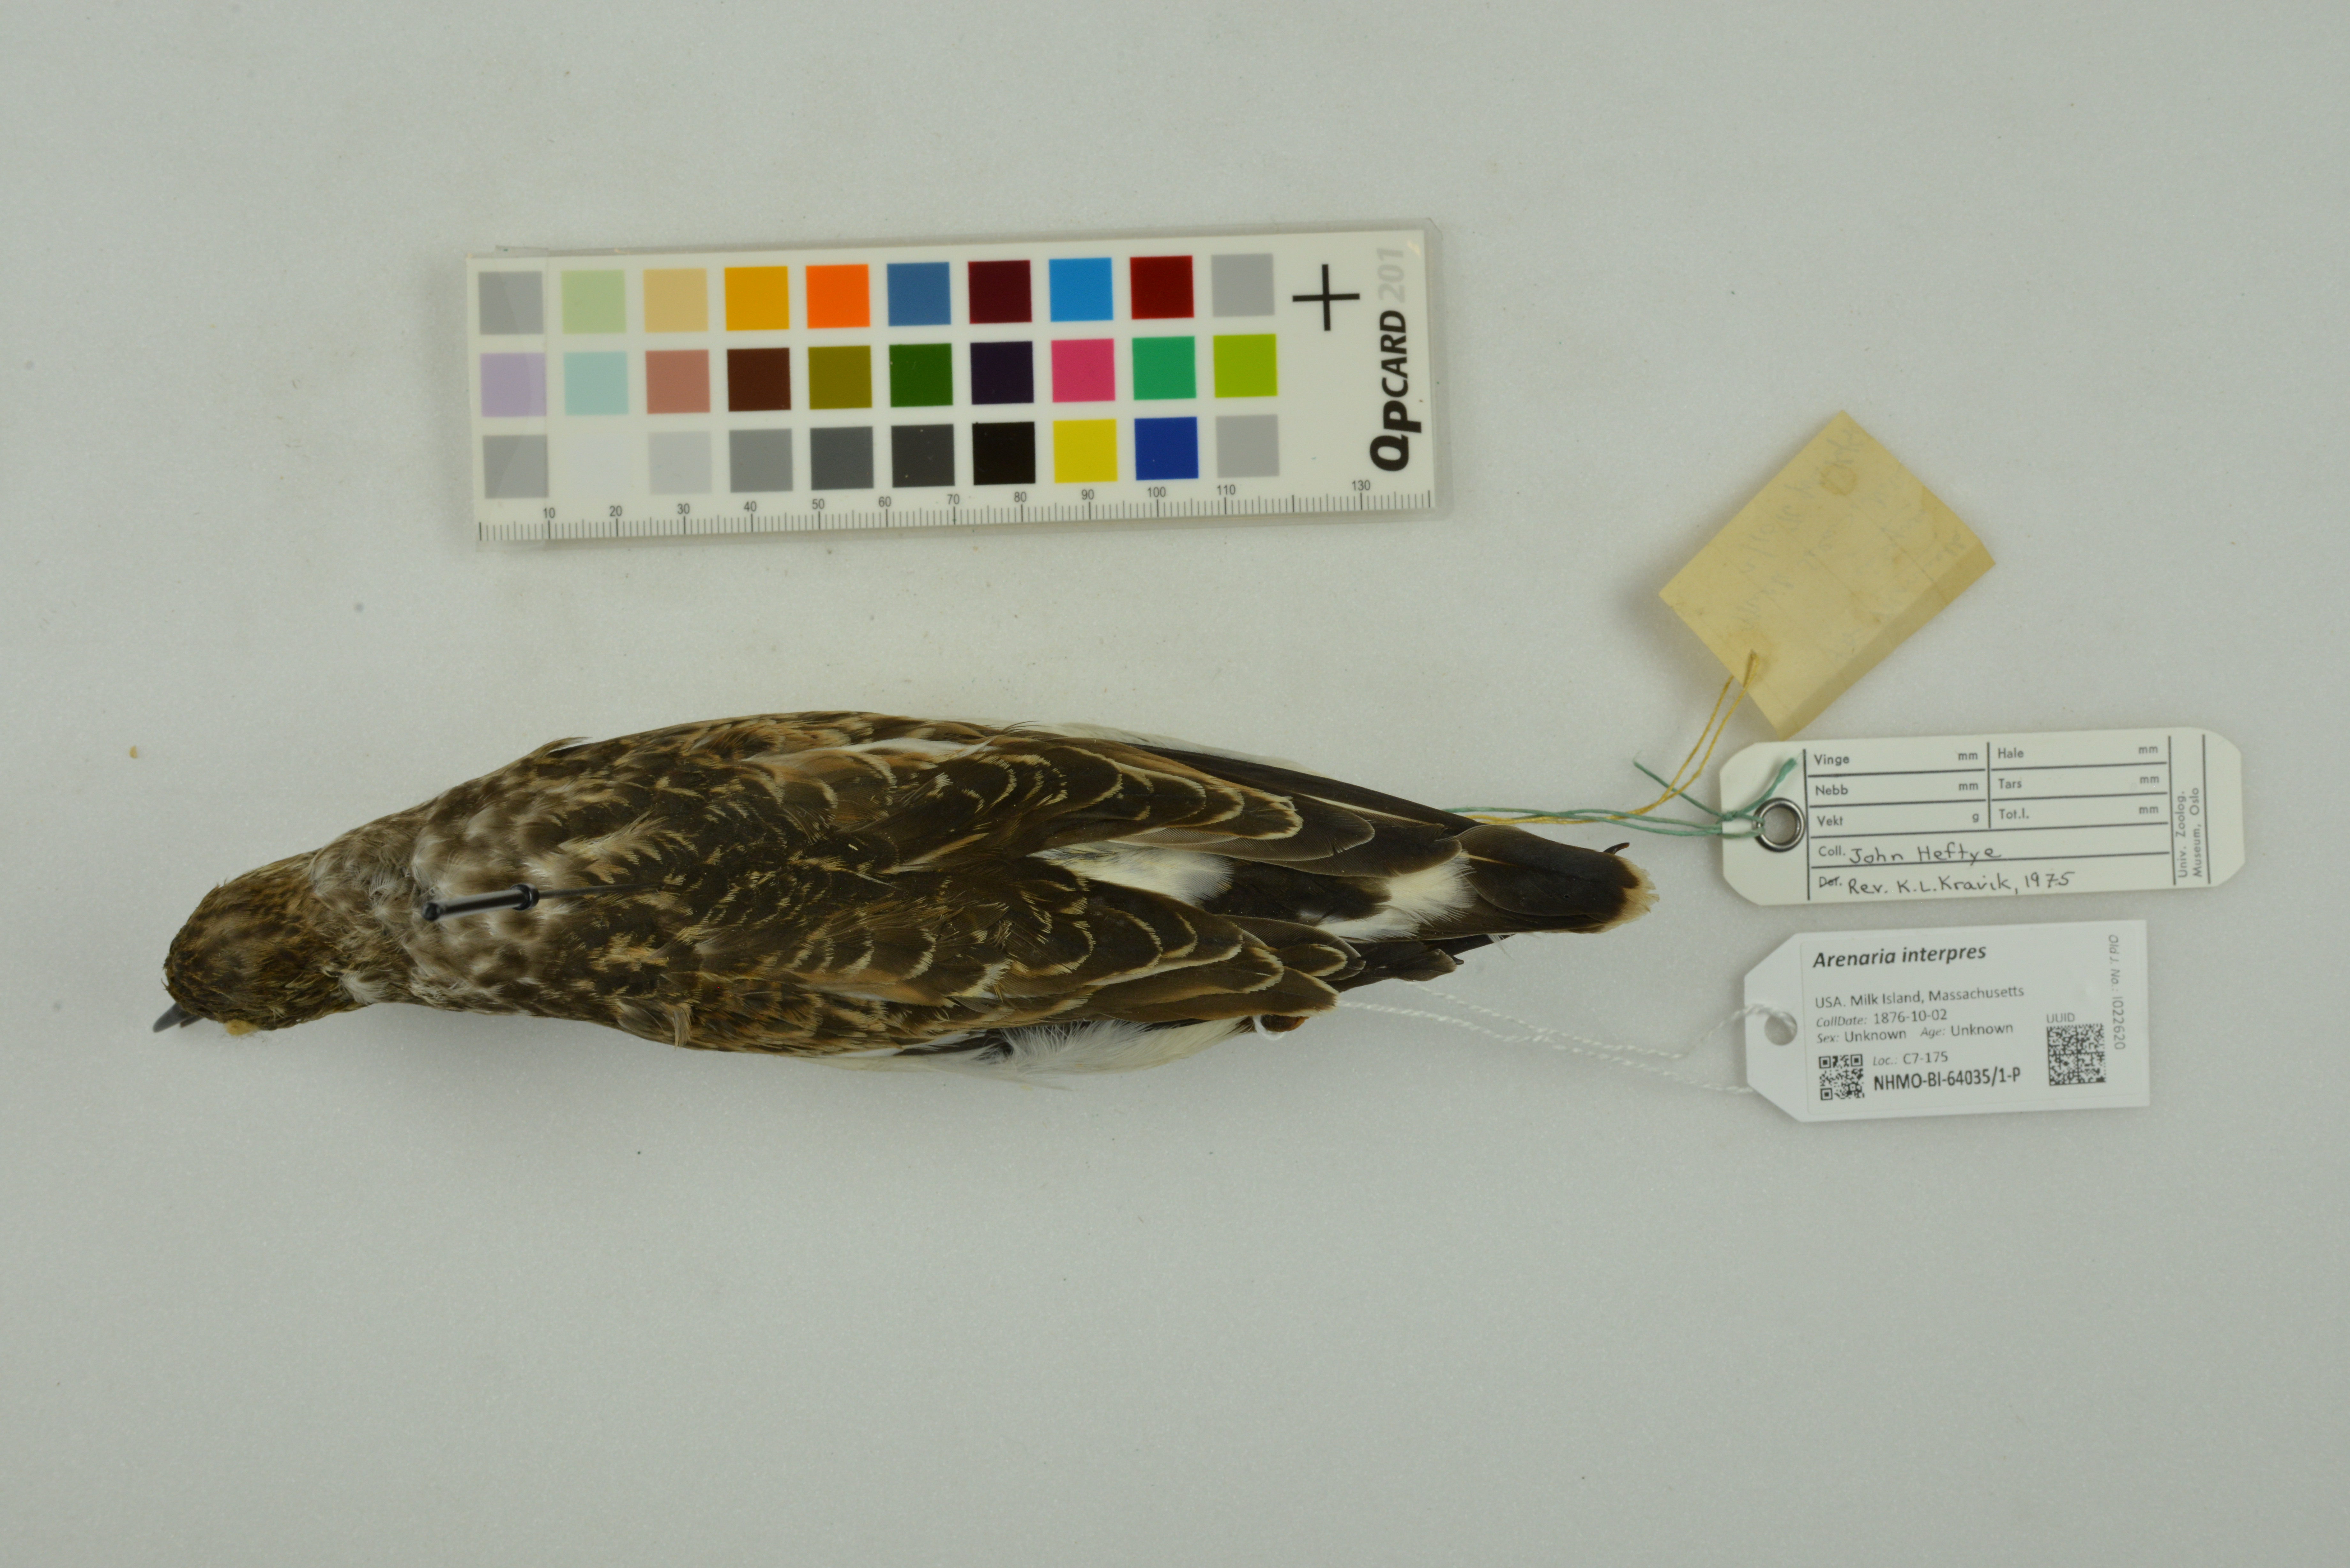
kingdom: Animalia
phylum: Chordata
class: Aves
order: Charadriiformes
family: Scolopacidae
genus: Arenaria
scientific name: Arenaria interpres
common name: Ruddy turnstone
